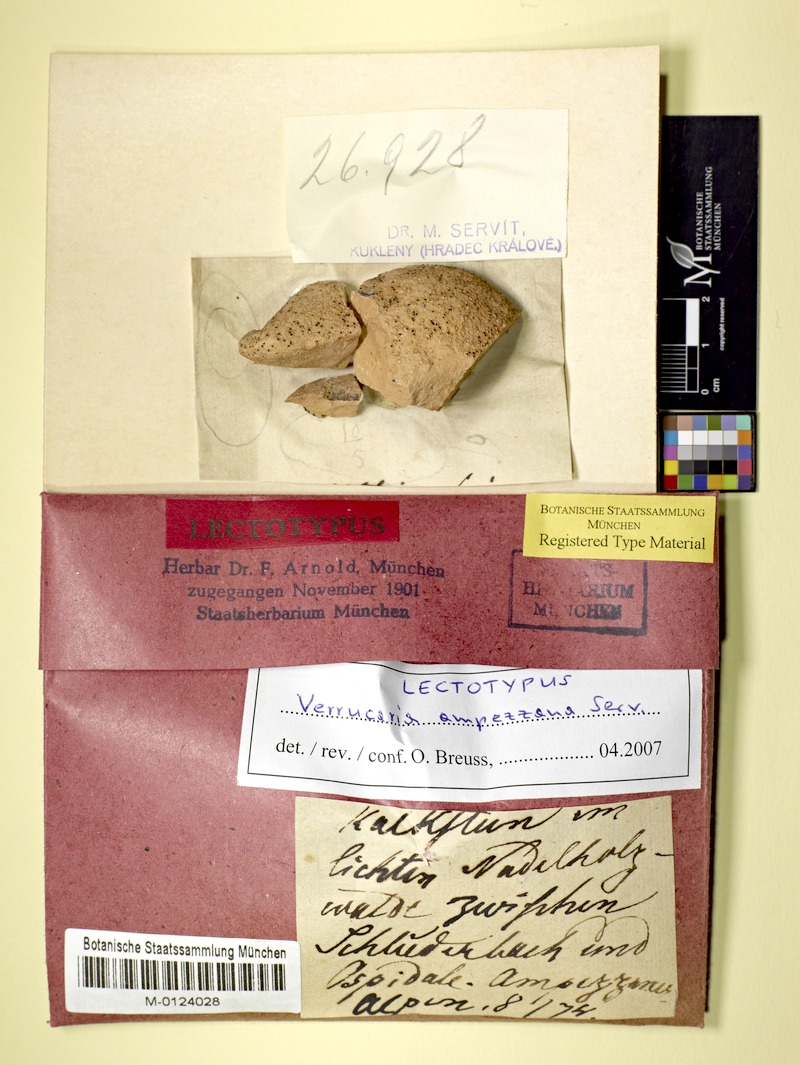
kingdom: Fungi
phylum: Ascomycota
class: Eurotiomycetes
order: Verrucariales
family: Verrucariaceae
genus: Verrucaria
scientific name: Verrucaria ampezzana
